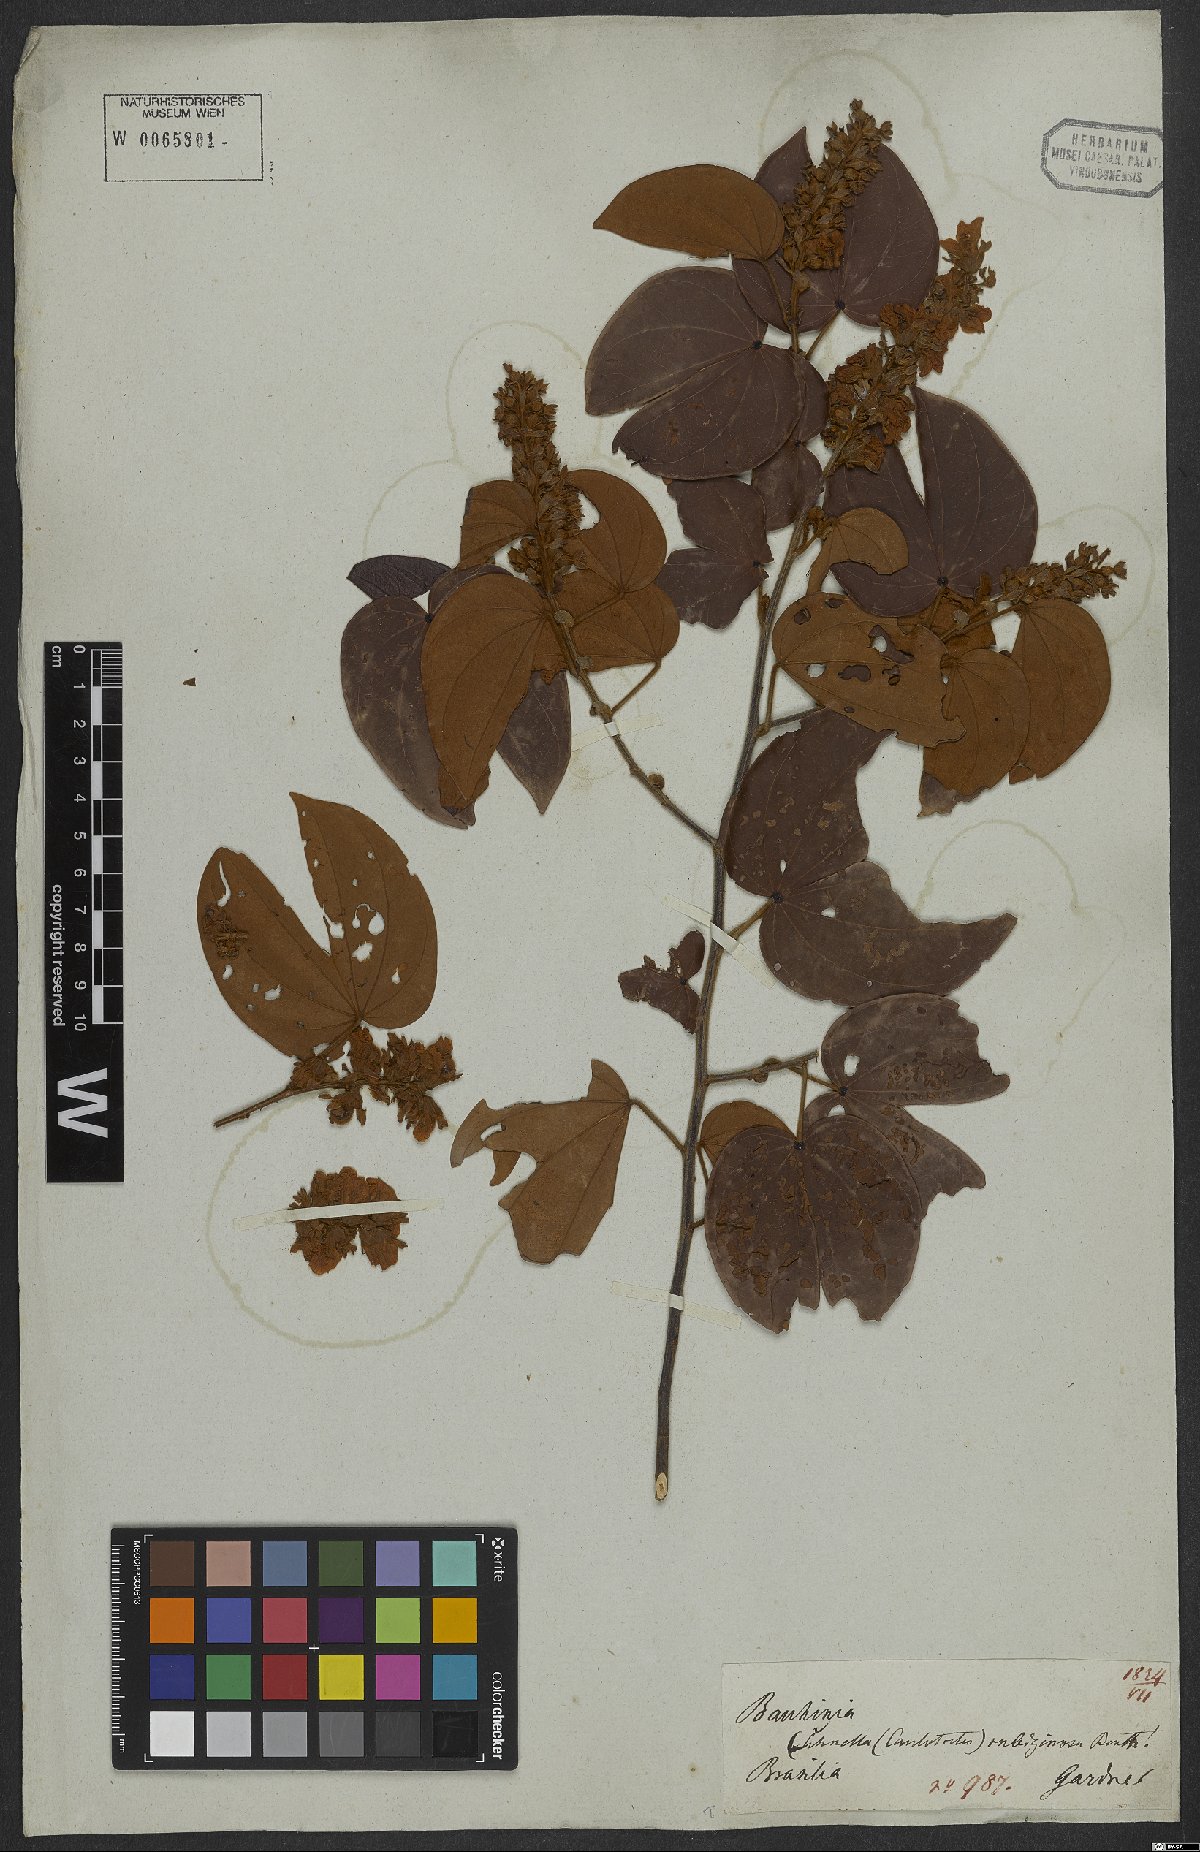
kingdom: Plantae
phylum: Tracheophyta
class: Magnoliopsida
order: Fabales
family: Fabaceae
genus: Schnella
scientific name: Schnella outimouta
